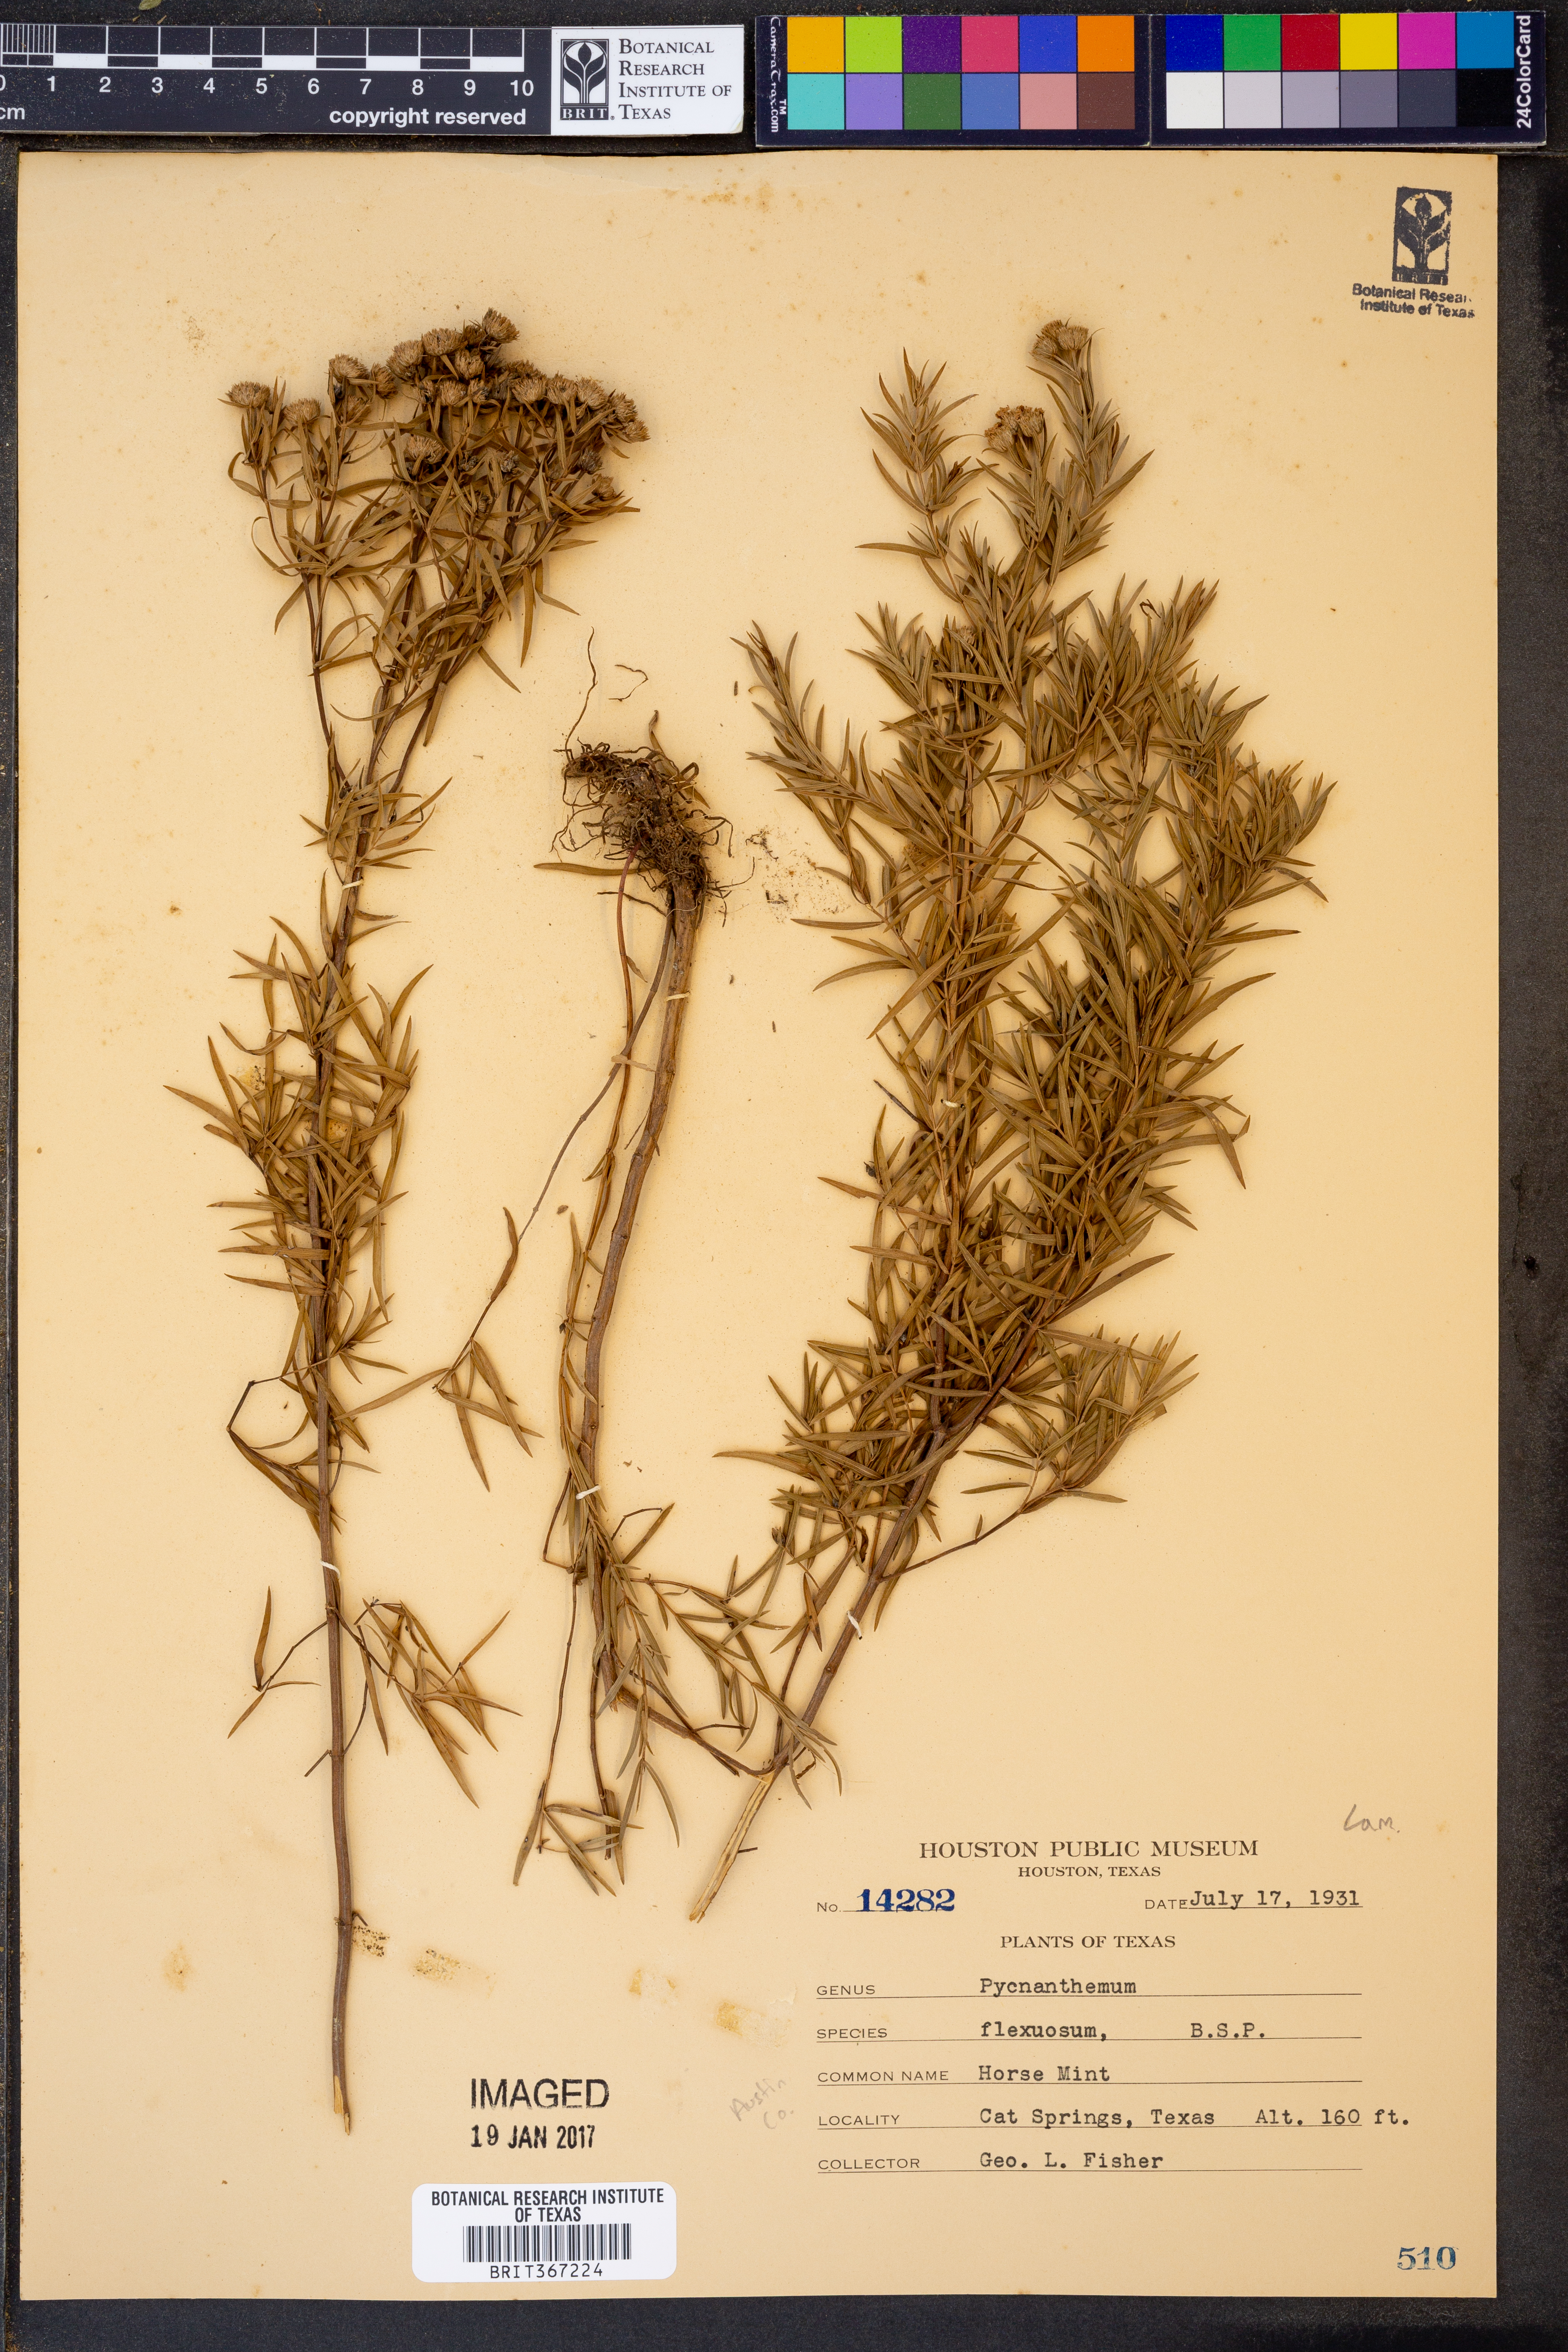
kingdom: Plantae
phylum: Tracheophyta
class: Magnoliopsida
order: Lamiales
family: Lamiaceae
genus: Pycnanthemum
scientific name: Pycnanthemum flexuosum
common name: Appalachian mountain-mint
